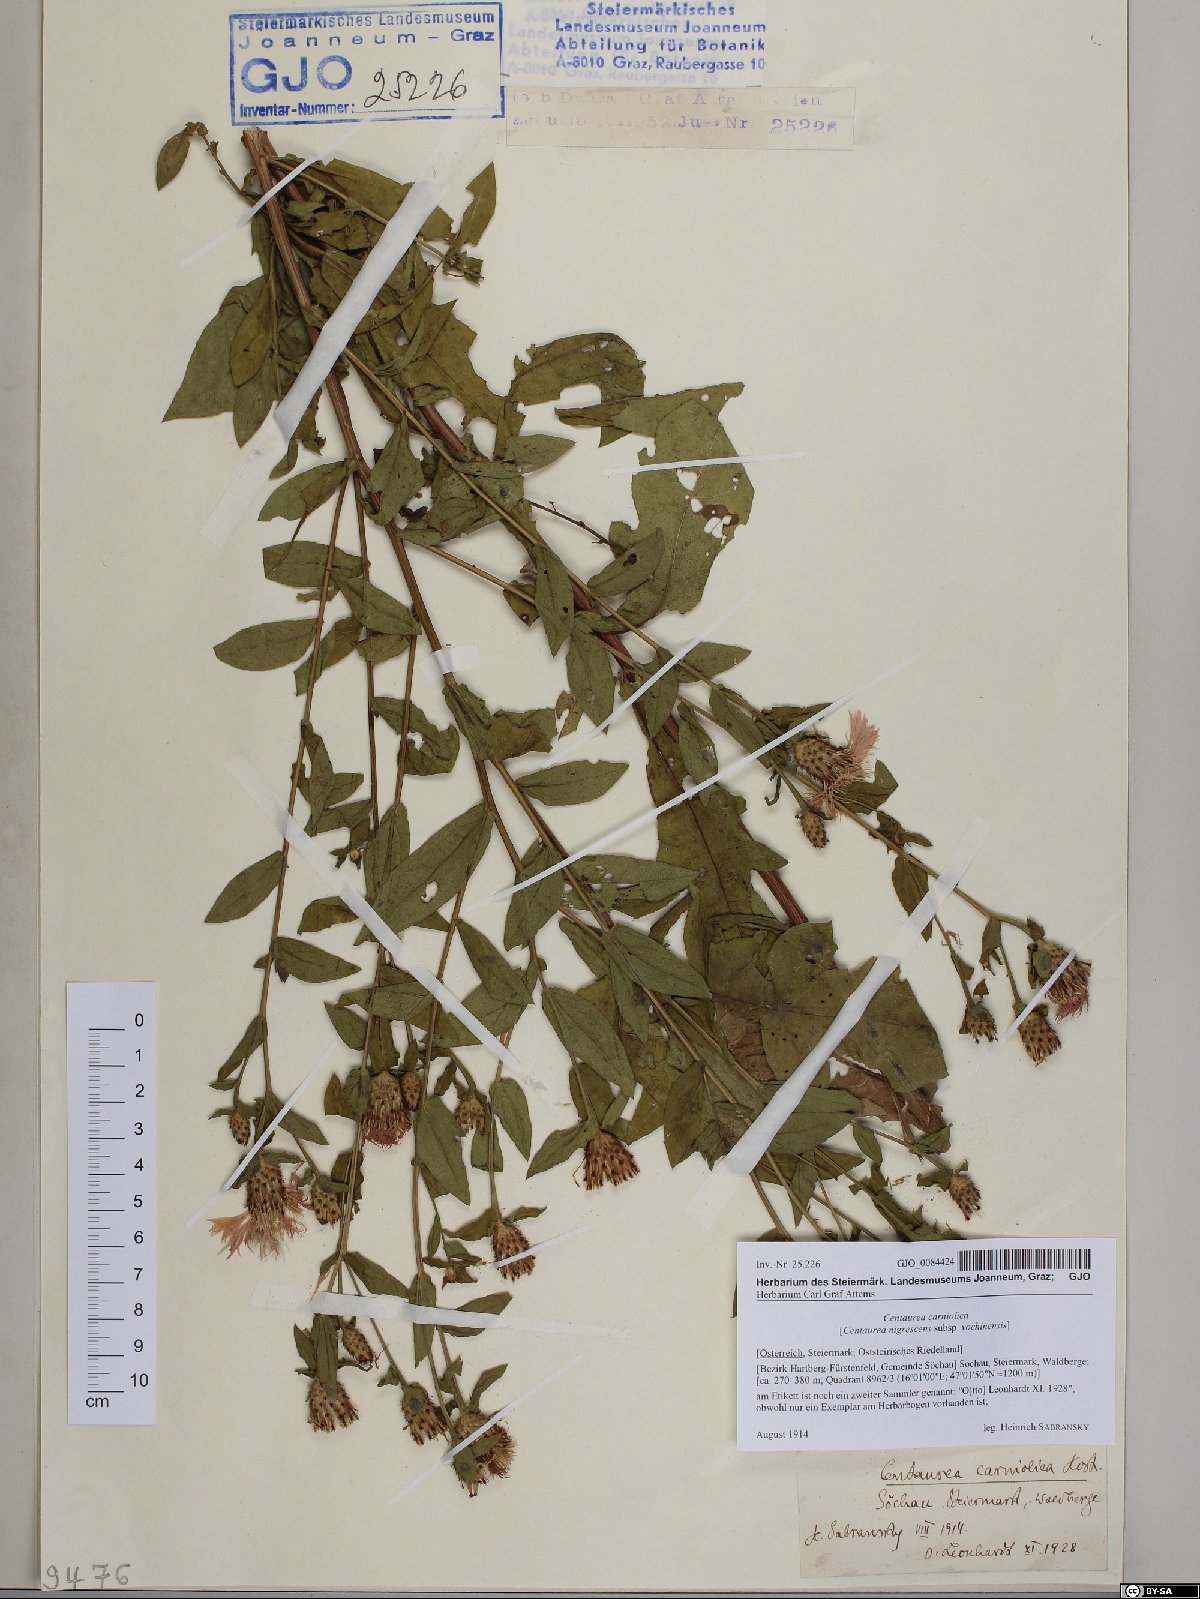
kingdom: Plantae
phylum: Tracheophyta
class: Magnoliopsida
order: Asterales
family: Asteraceae
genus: Centaurea
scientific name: Centaurea carniolica
